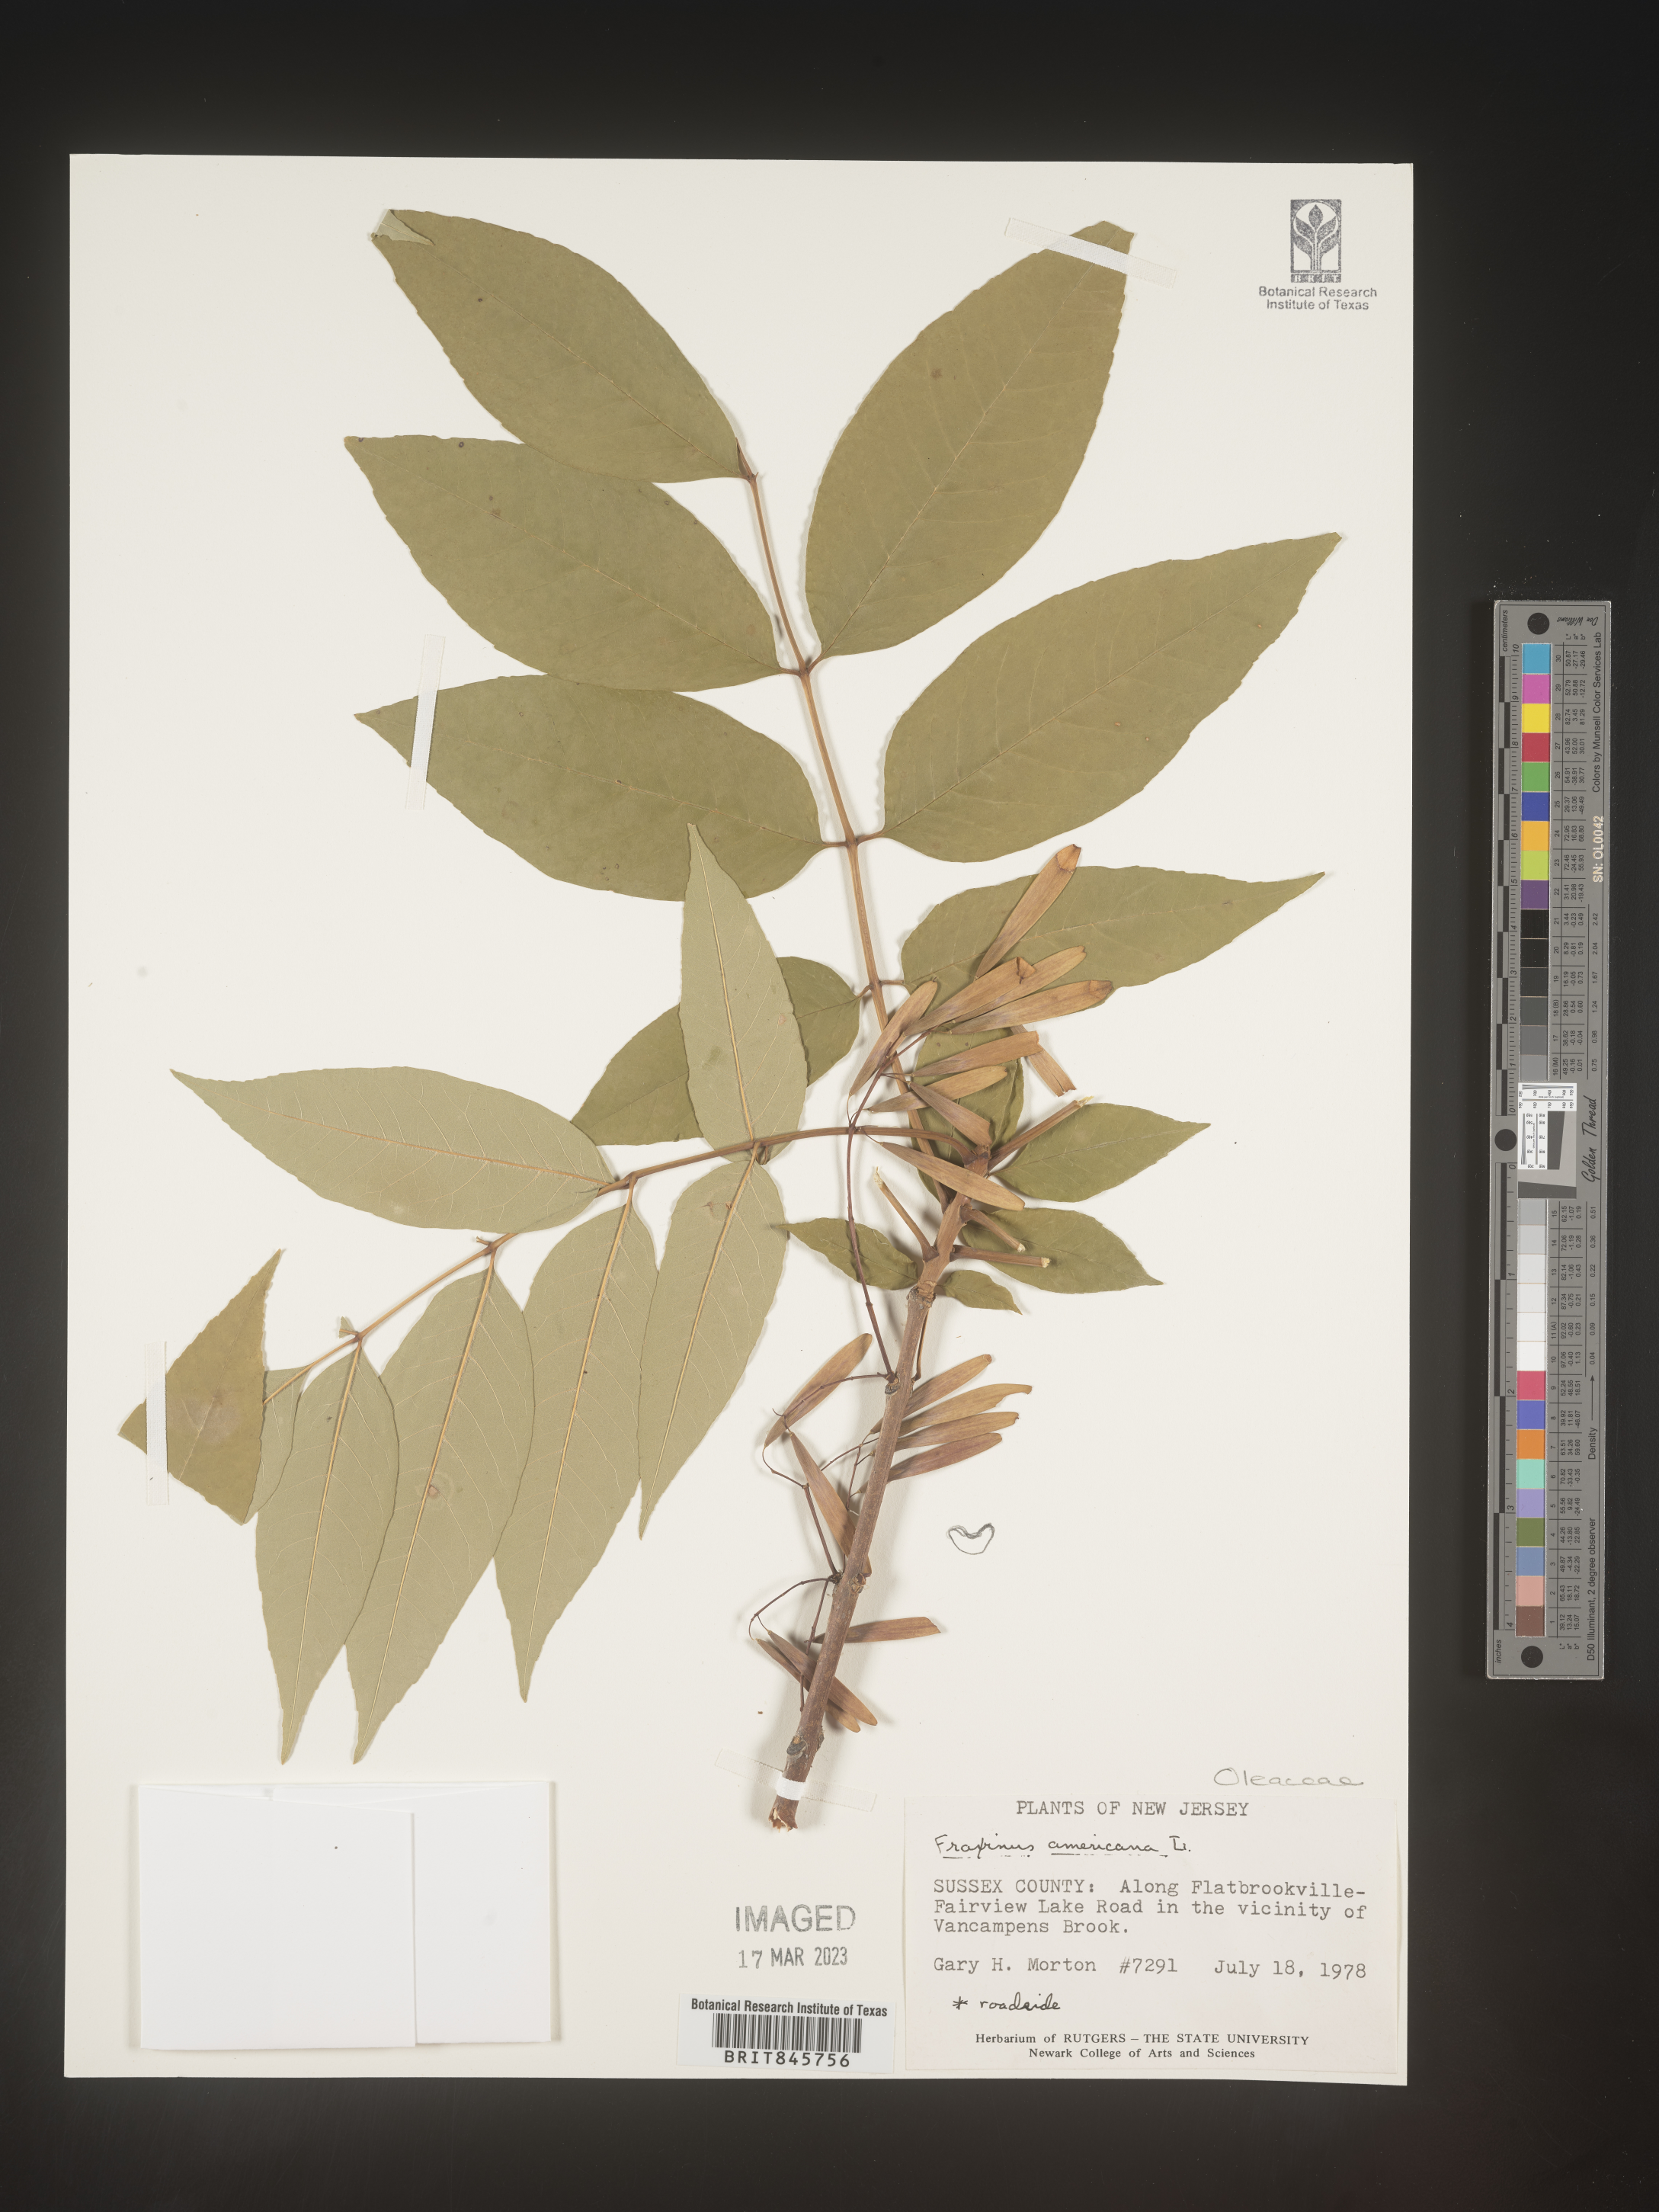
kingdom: Plantae
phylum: Tracheophyta
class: Magnoliopsida
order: Lamiales
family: Oleaceae
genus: Fraxinus
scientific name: Fraxinus americana
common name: White ash
